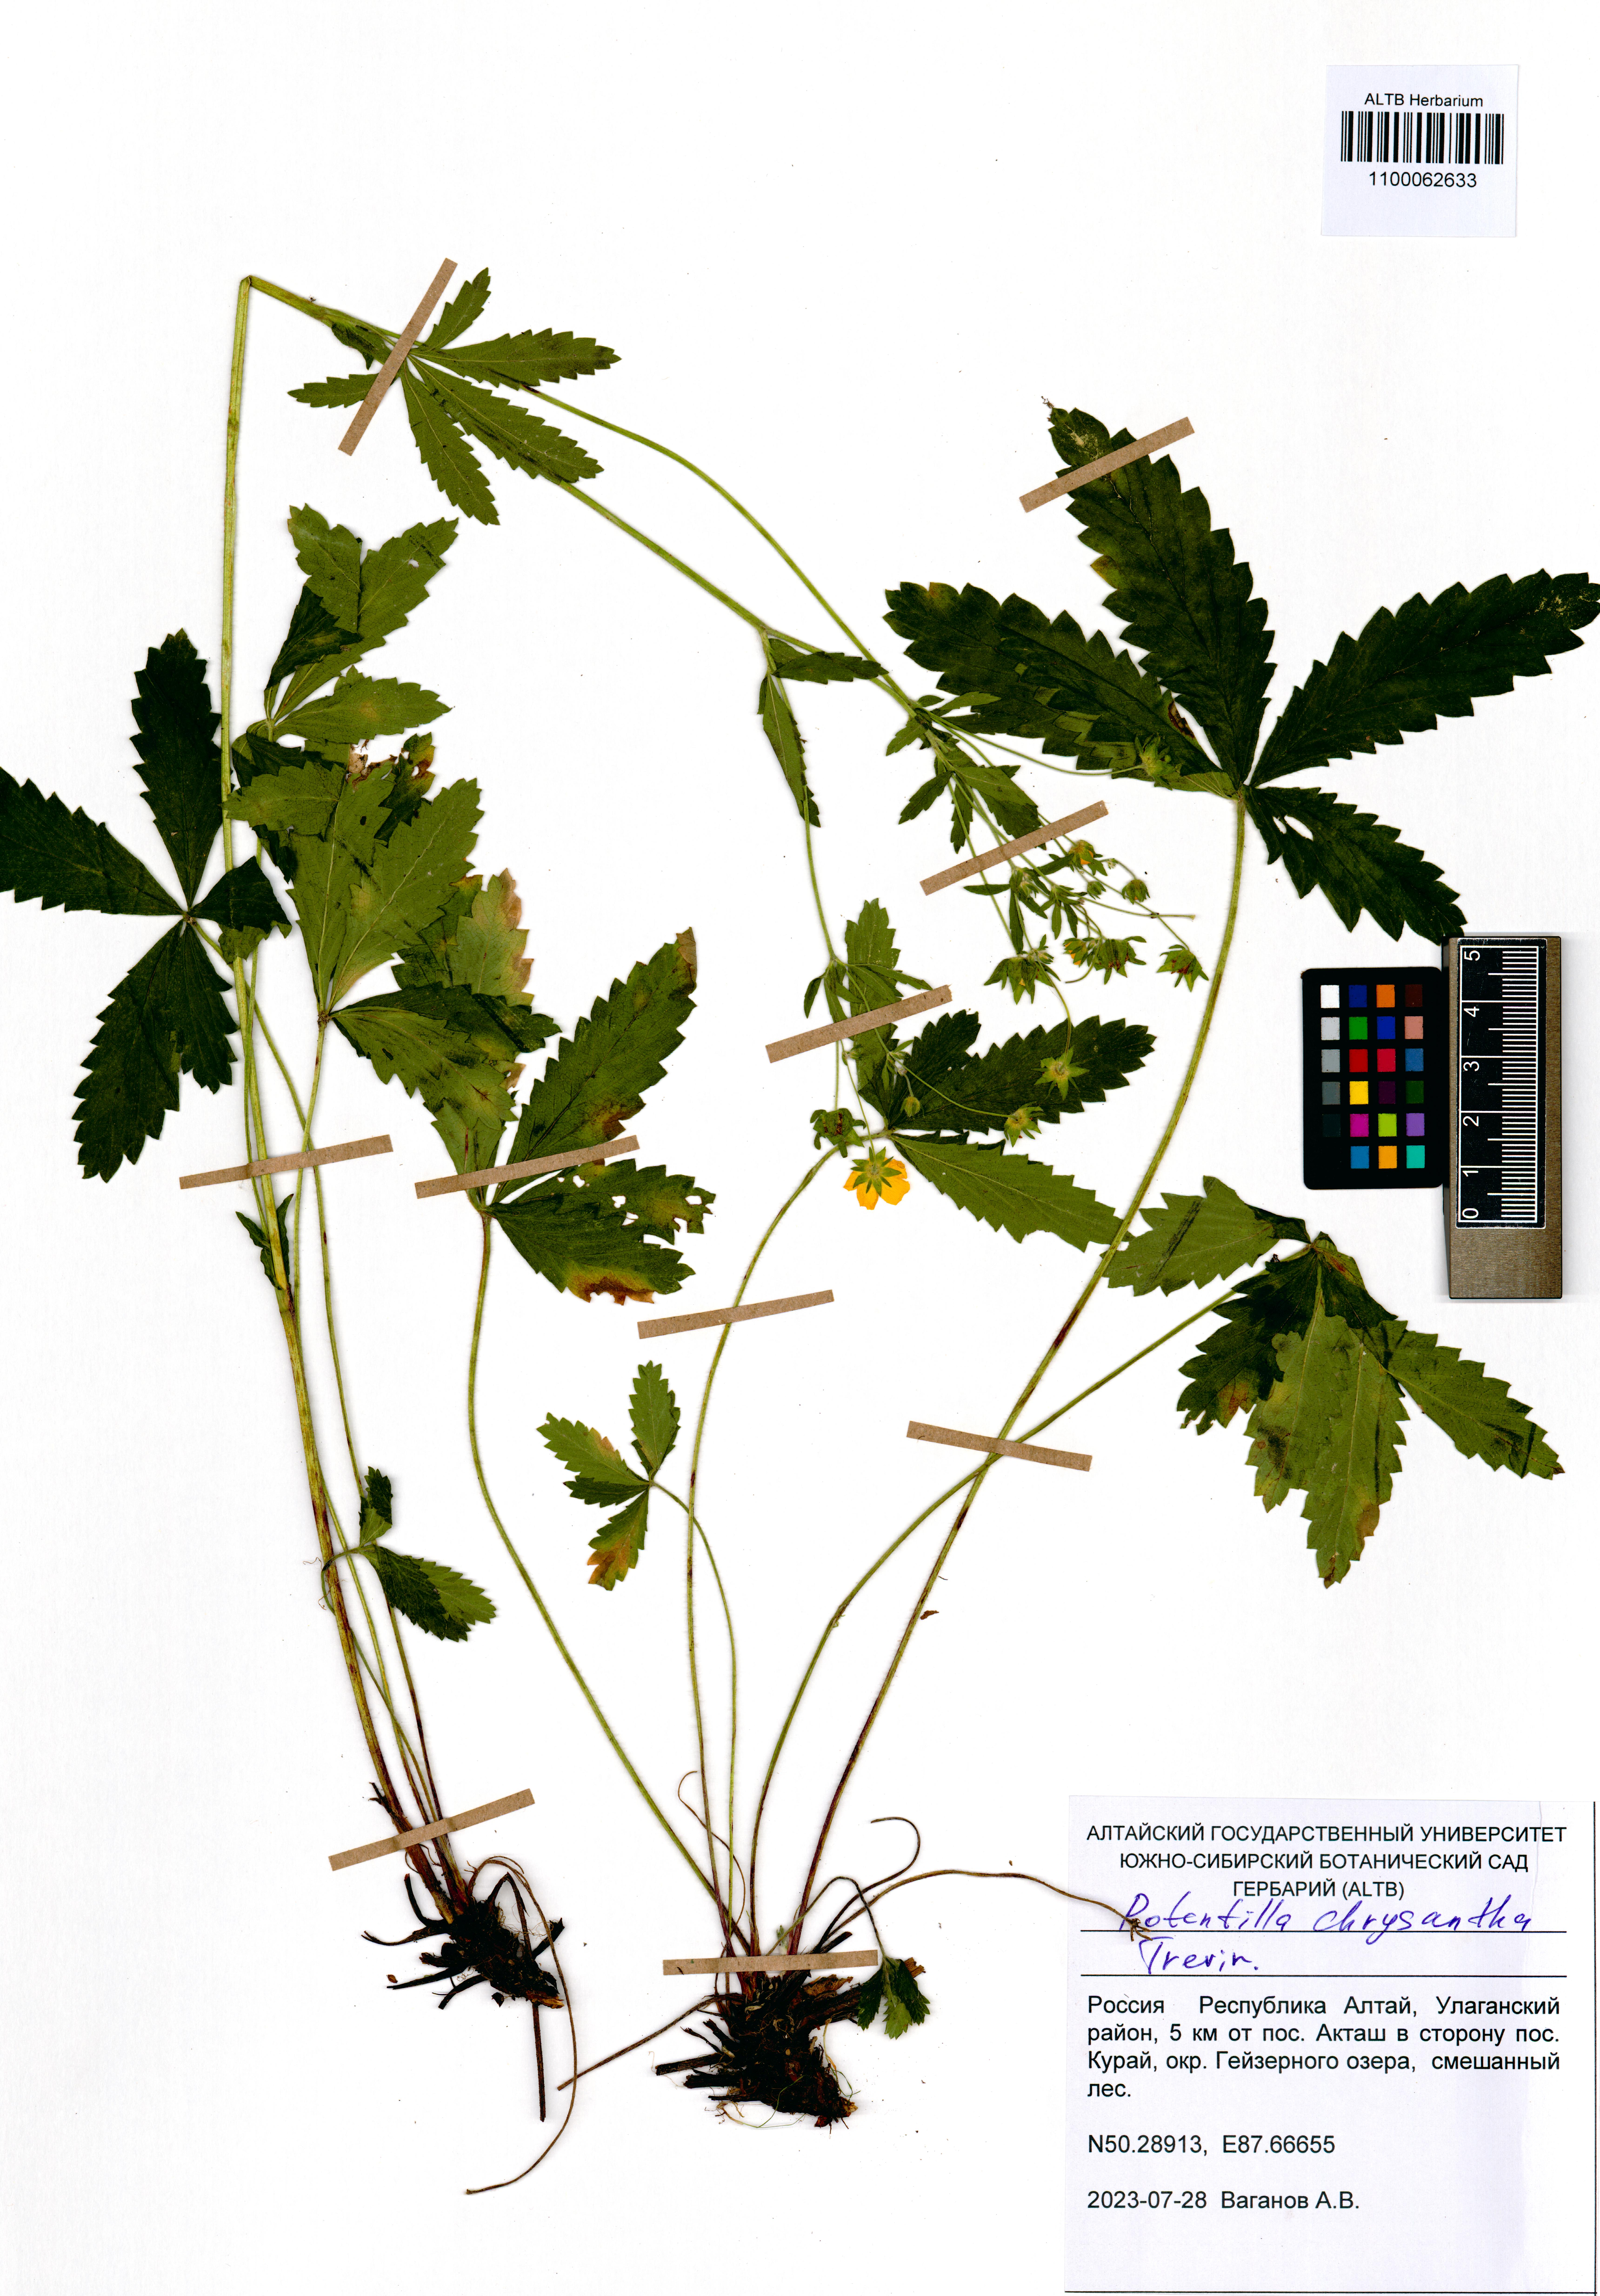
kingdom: Plantae
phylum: Tracheophyta
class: Magnoliopsida
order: Rosales
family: Rosaceae
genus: Potentilla
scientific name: Potentilla chrysantha
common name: Thuringian cinquefoil
